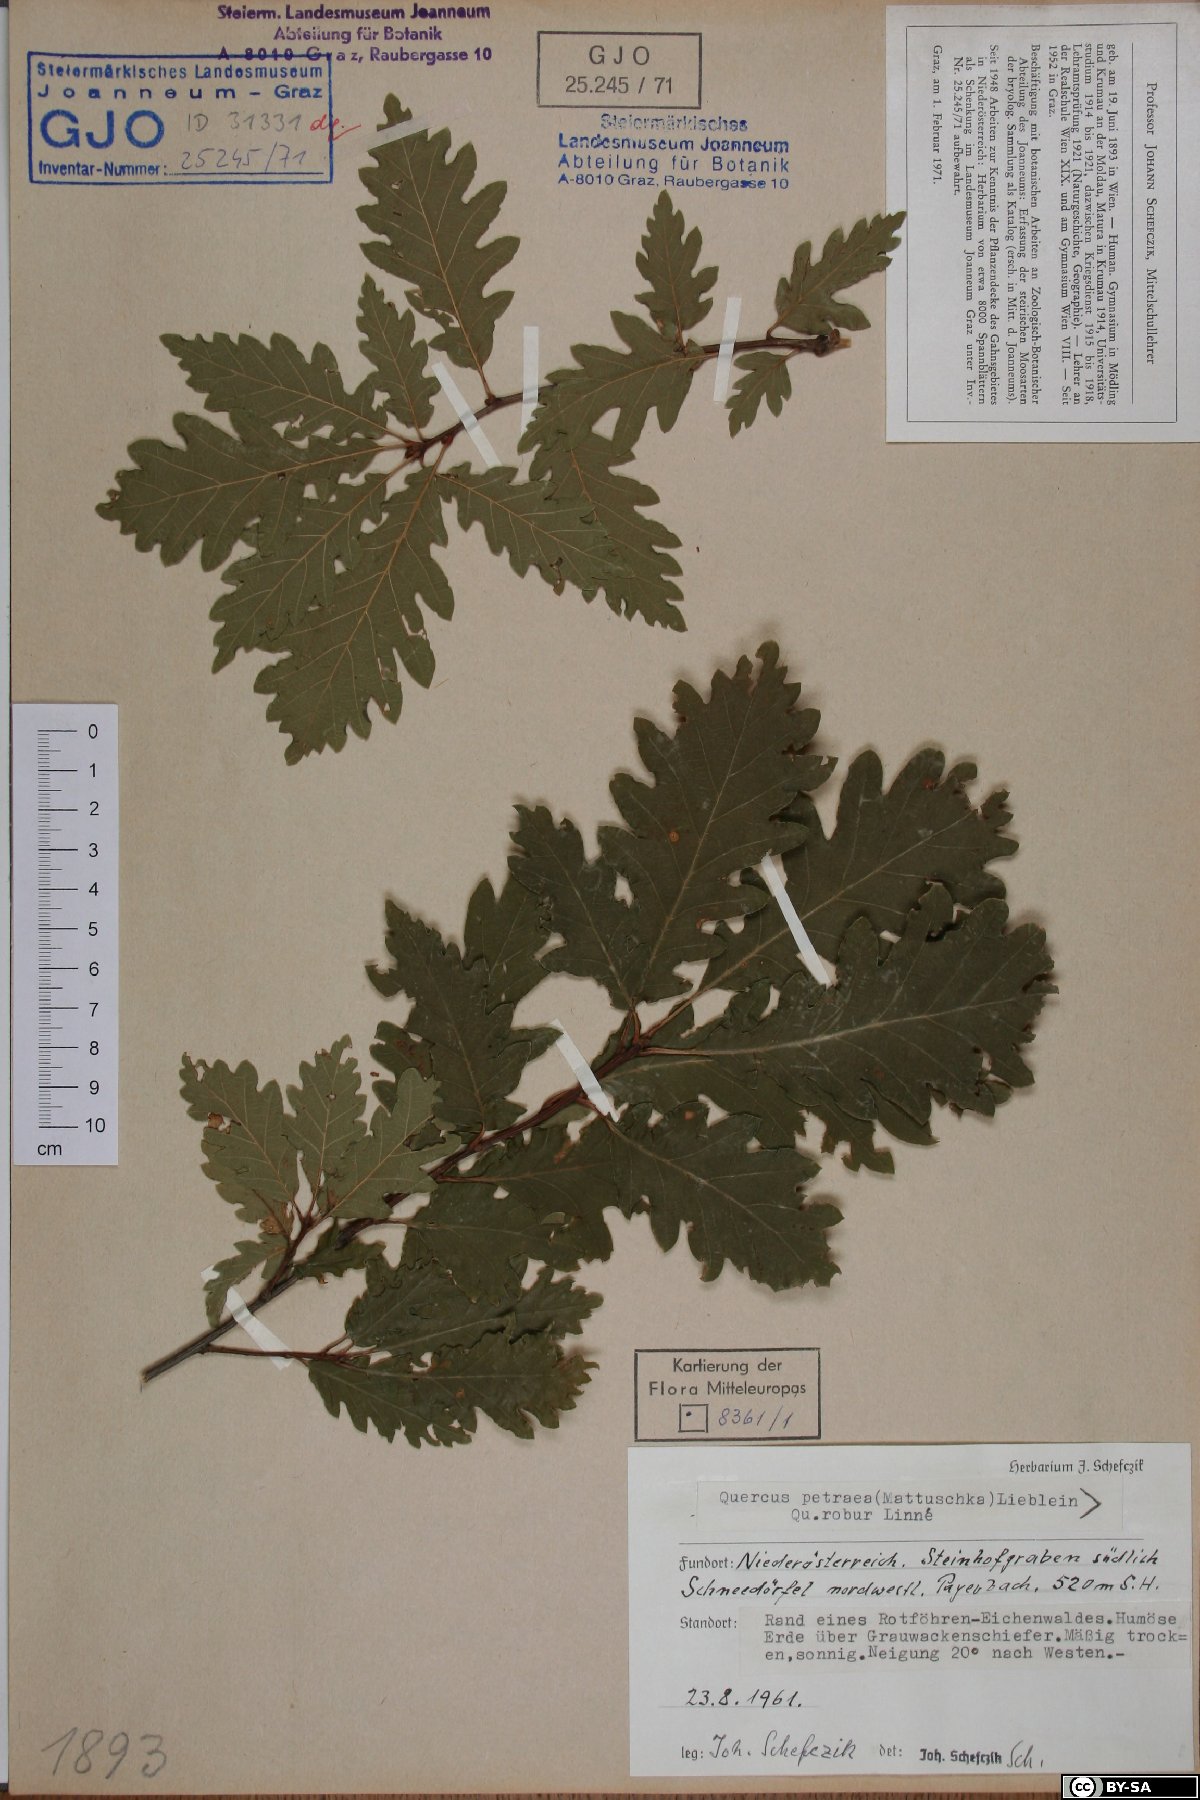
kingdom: Plantae
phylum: Tracheophyta
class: Magnoliopsida
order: Fagales
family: Fagaceae
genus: Quercus
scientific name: Quercus petraea
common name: Sessile oak
